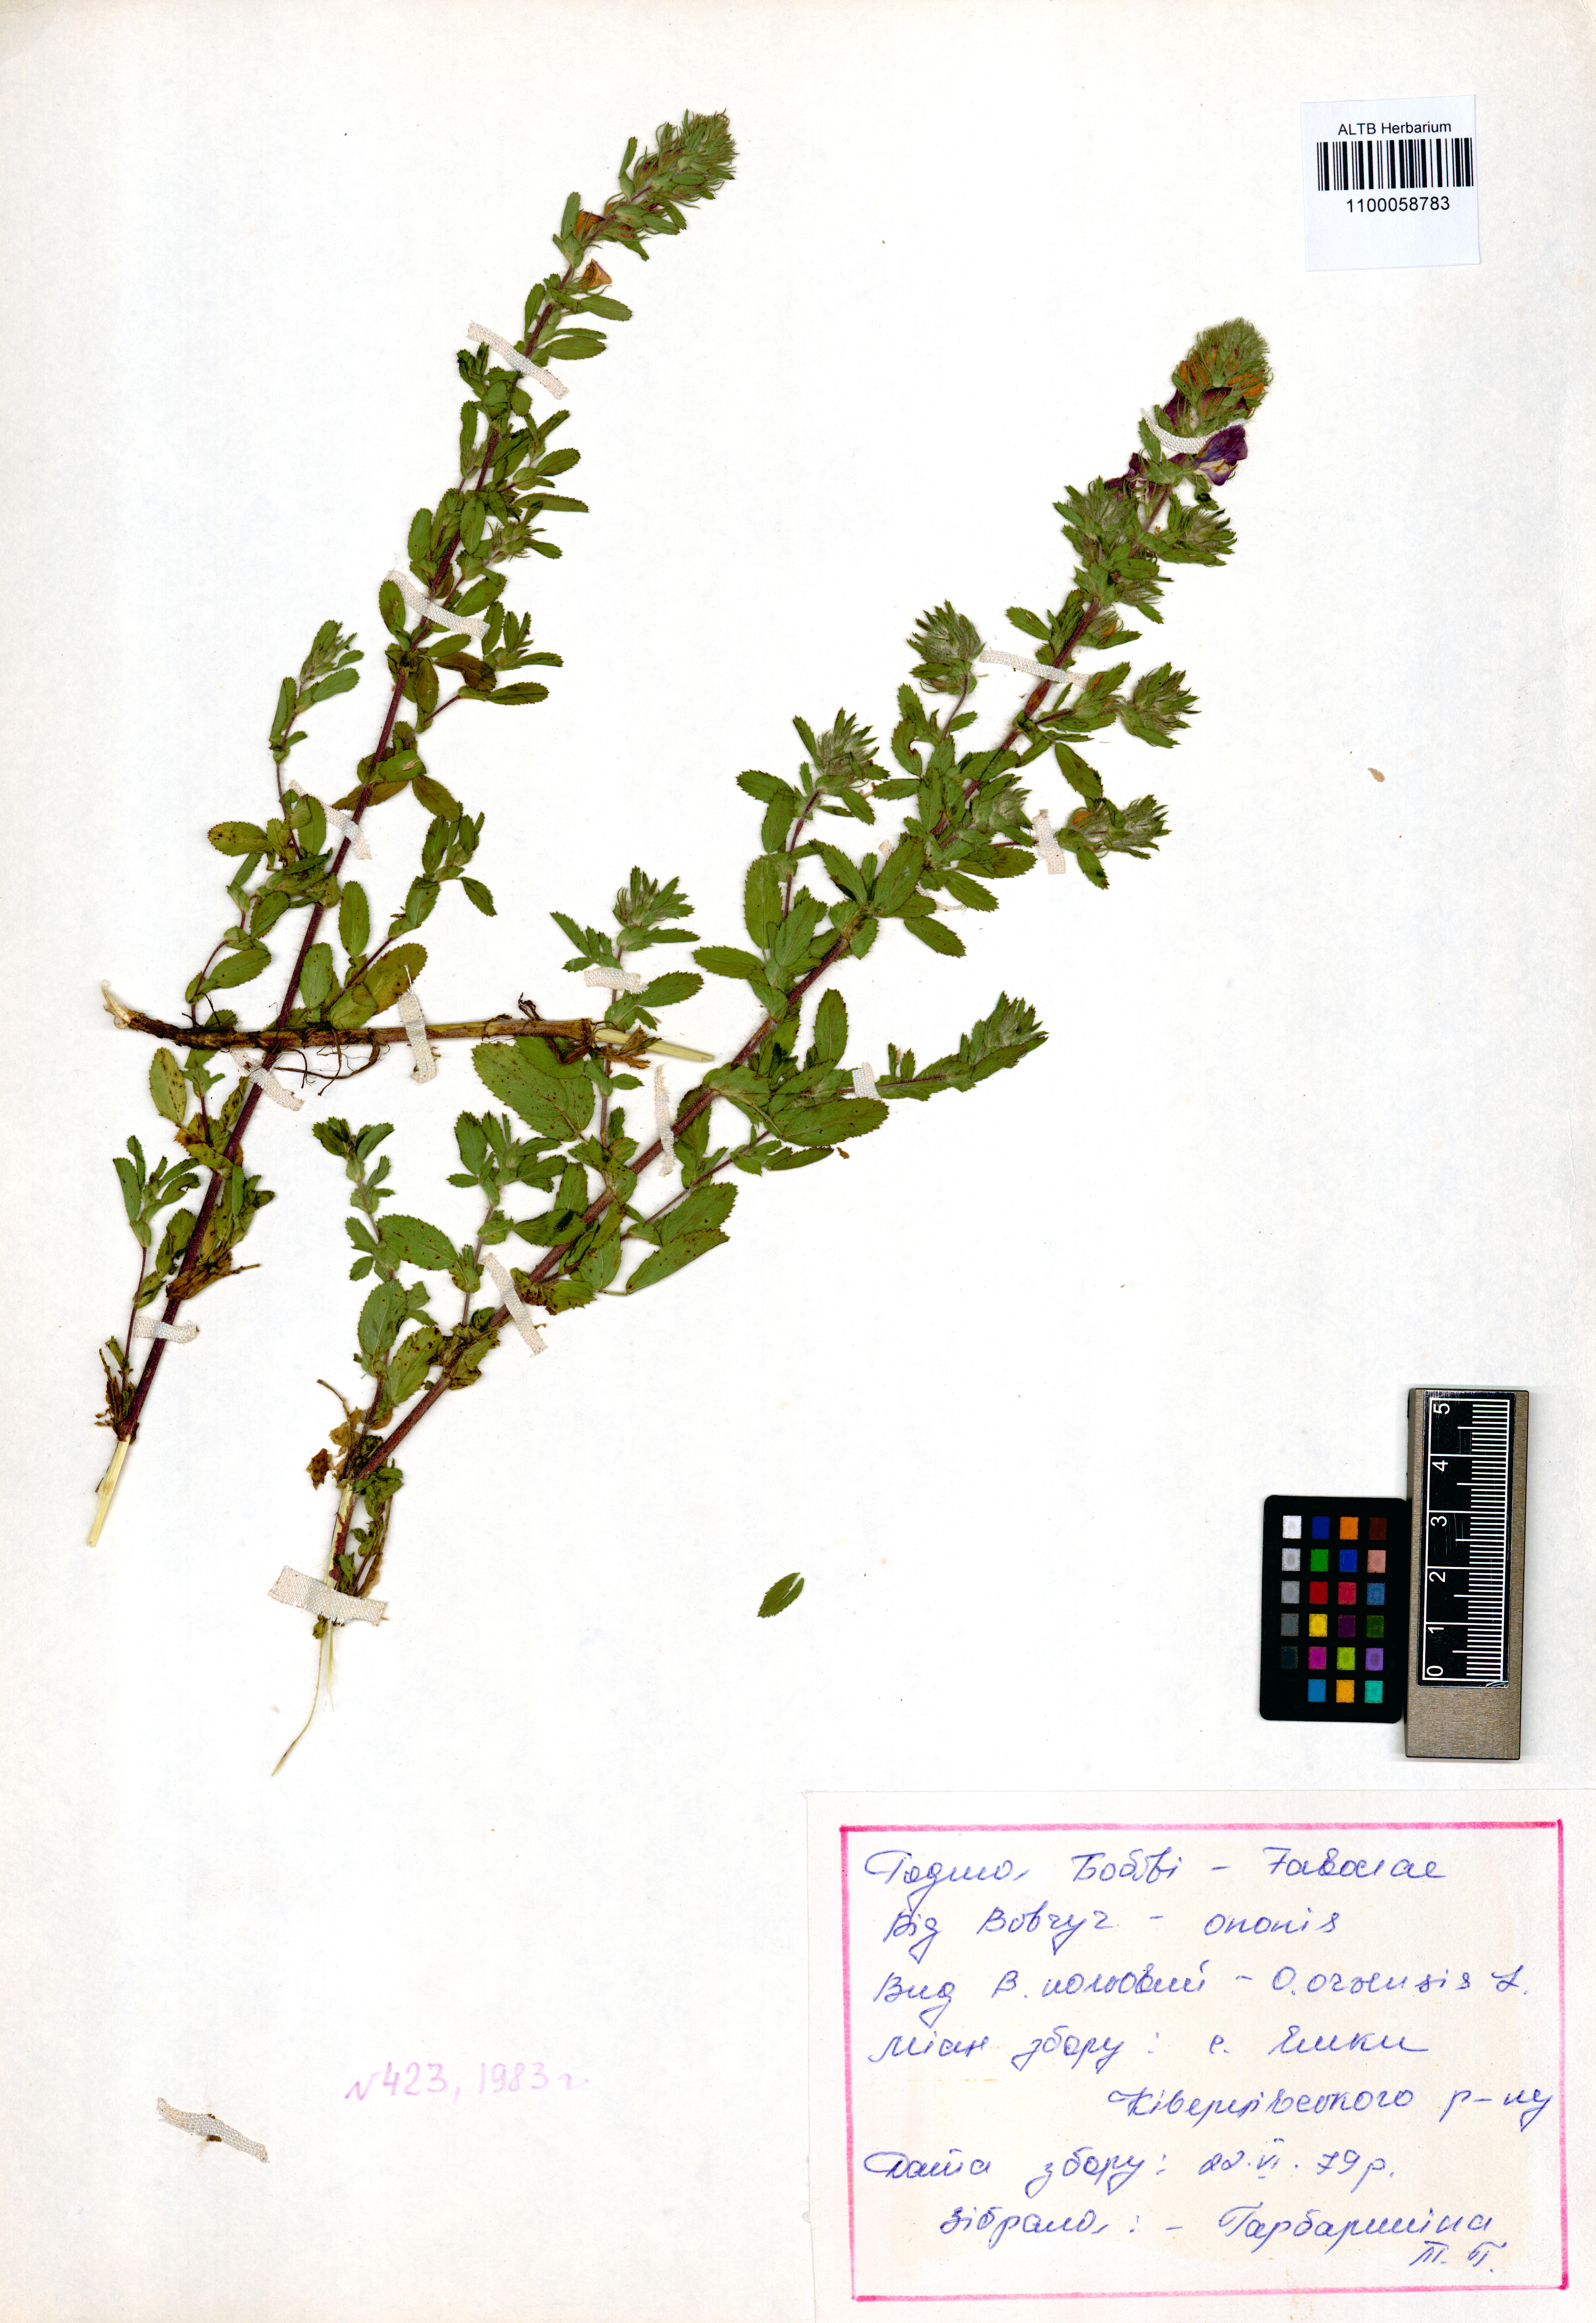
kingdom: Plantae
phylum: Tracheophyta
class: Magnoliopsida
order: Fabales
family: Fabaceae
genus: Ononis
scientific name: Ononis arvensis
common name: Field restharrow
